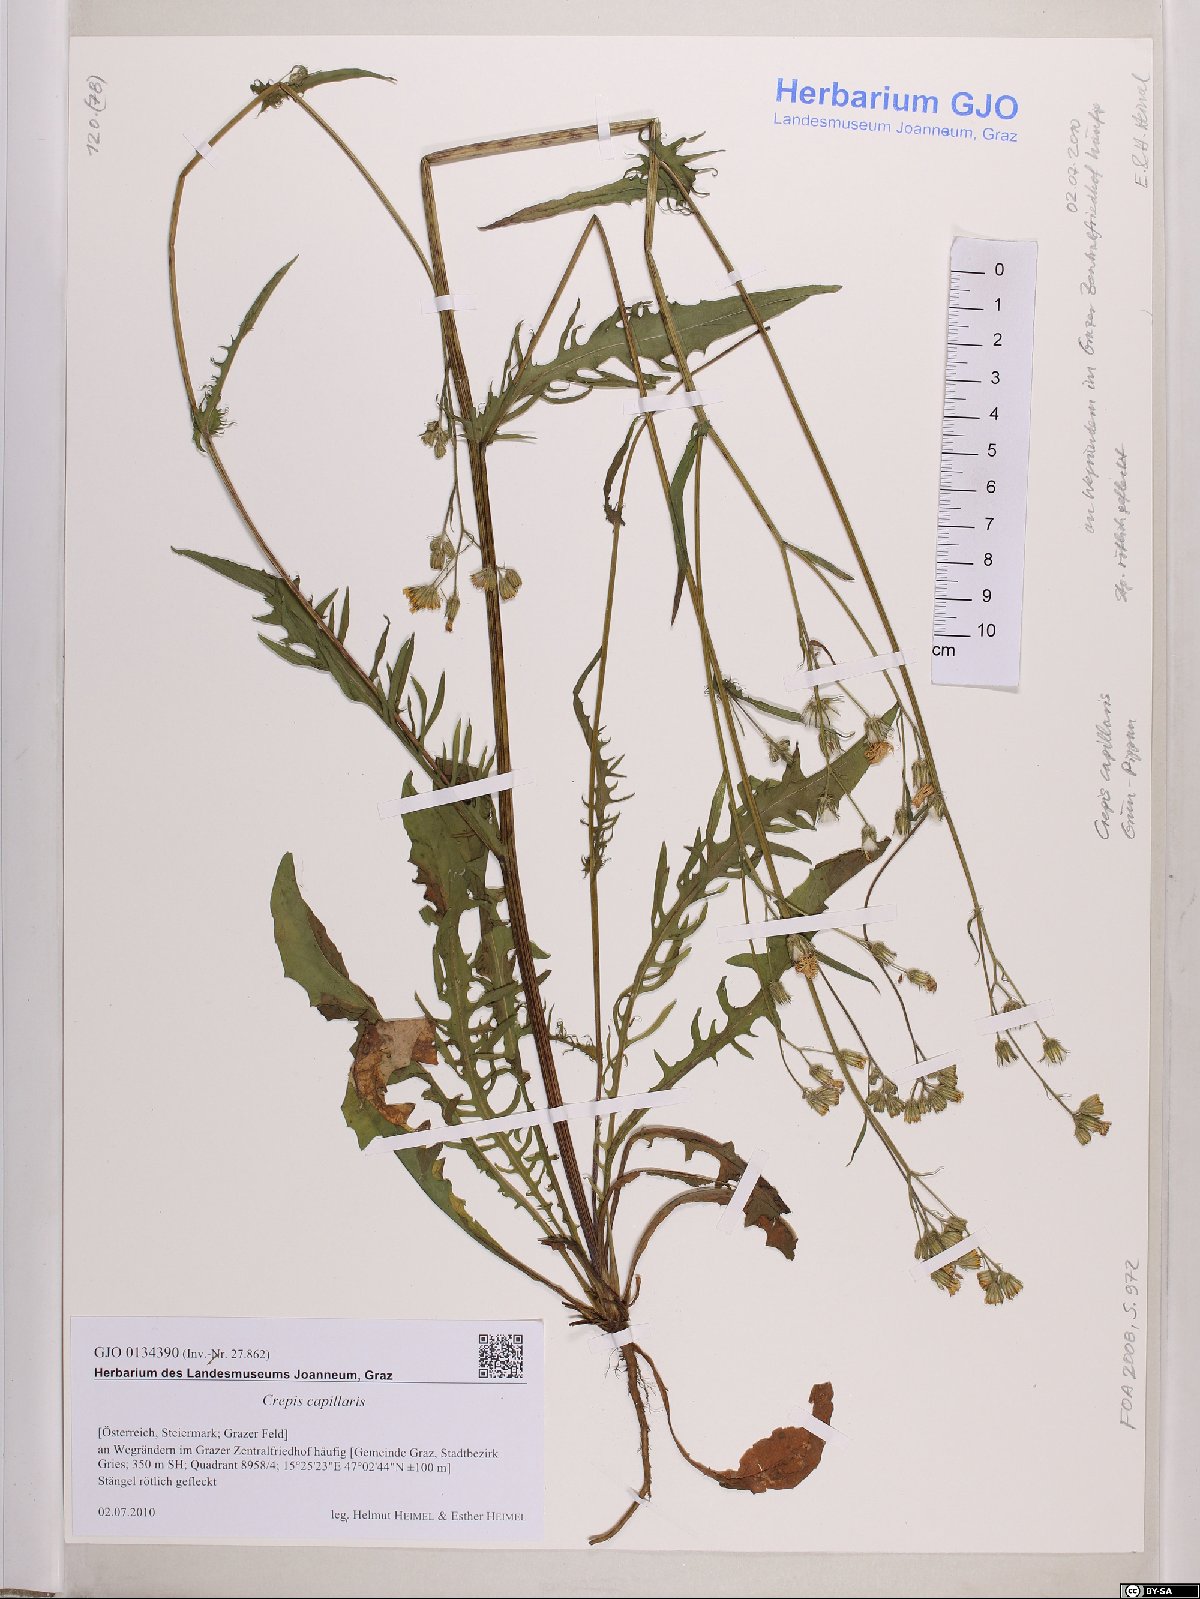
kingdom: Plantae
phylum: Tracheophyta
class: Magnoliopsida
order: Asterales
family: Asteraceae
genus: Crepis
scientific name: Crepis capillaris
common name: Smooth hawksbeard
